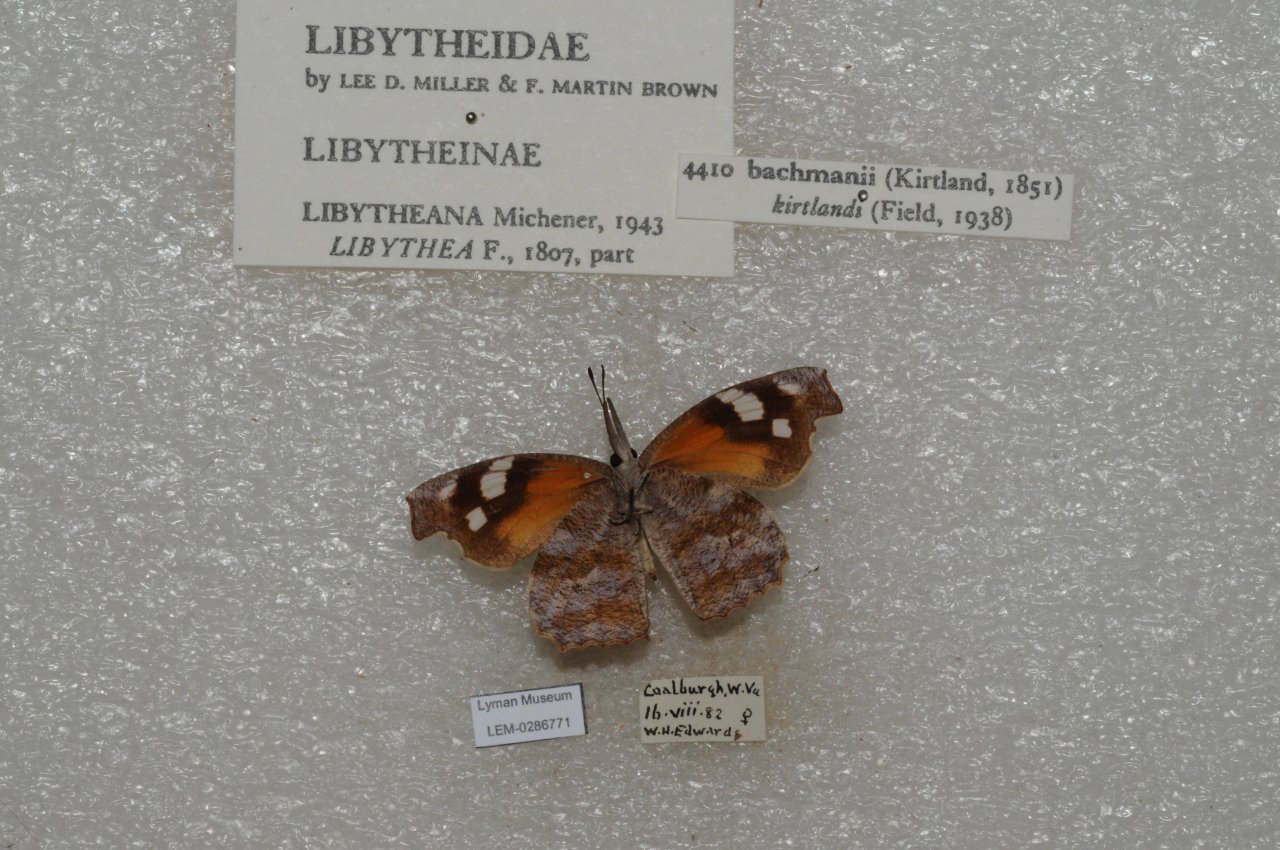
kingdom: Animalia
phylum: Arthropoda
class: Insecta
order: Lepidoptera
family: Nymphalidae
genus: Libytheana
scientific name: Libytheana carinenta
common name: American Snout
